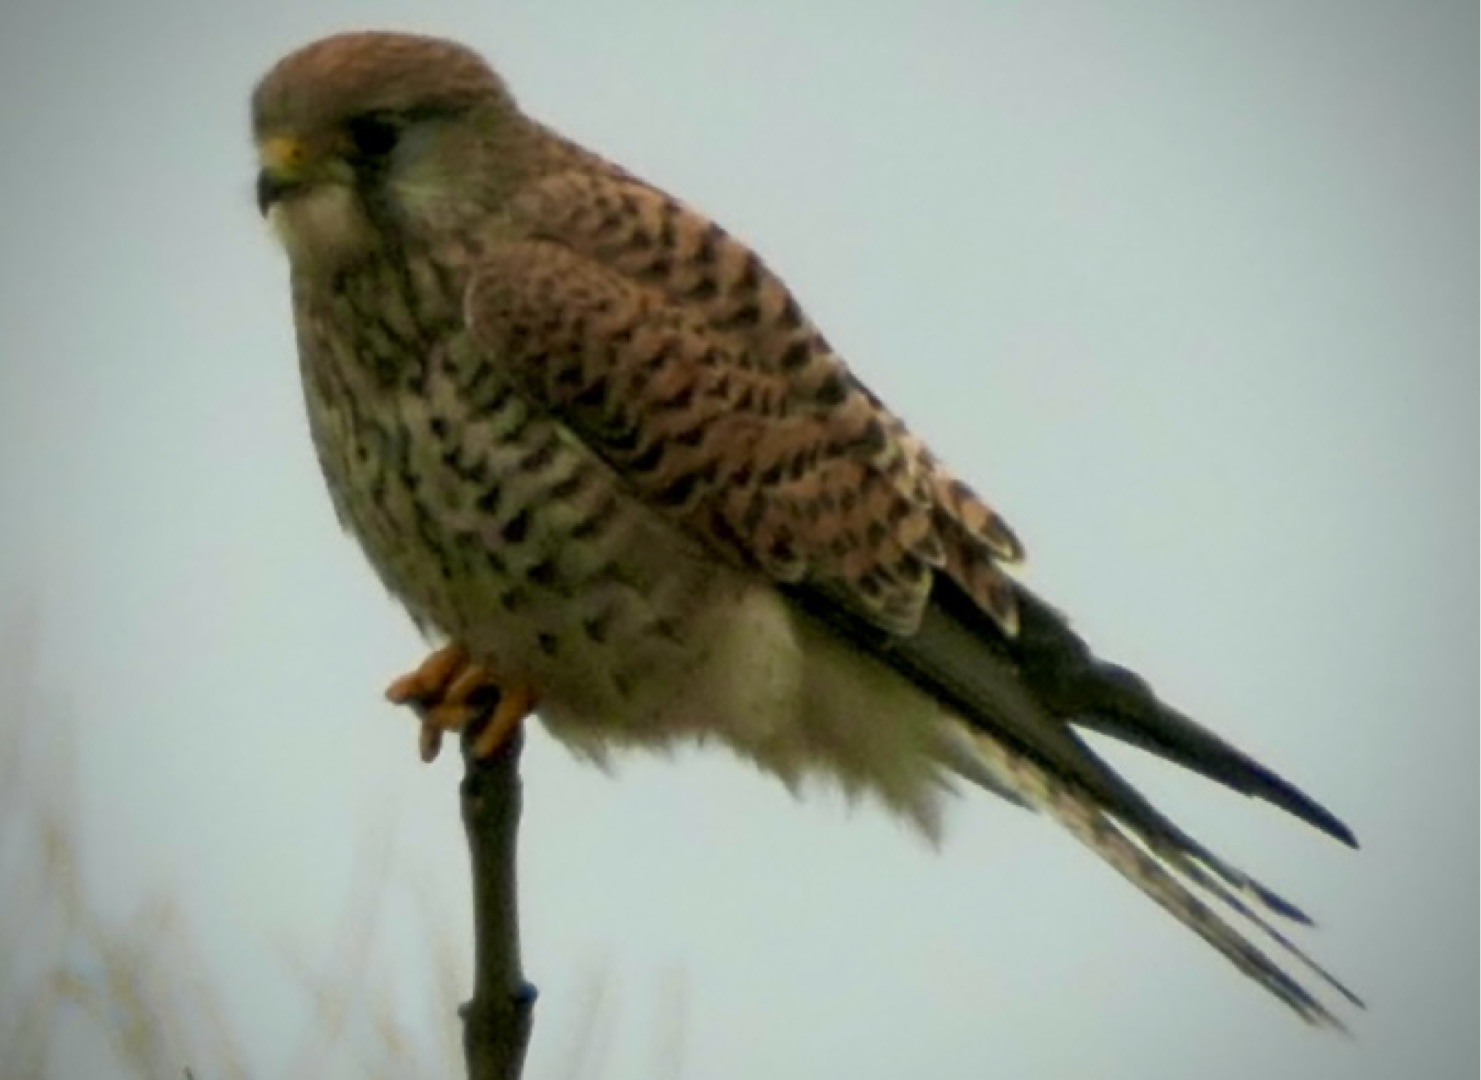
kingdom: Animalia
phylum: Chordata
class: Aves
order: Falconiformes
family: Falconidae
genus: Falco
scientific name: Falco tinnunculus
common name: Tårnfalk
